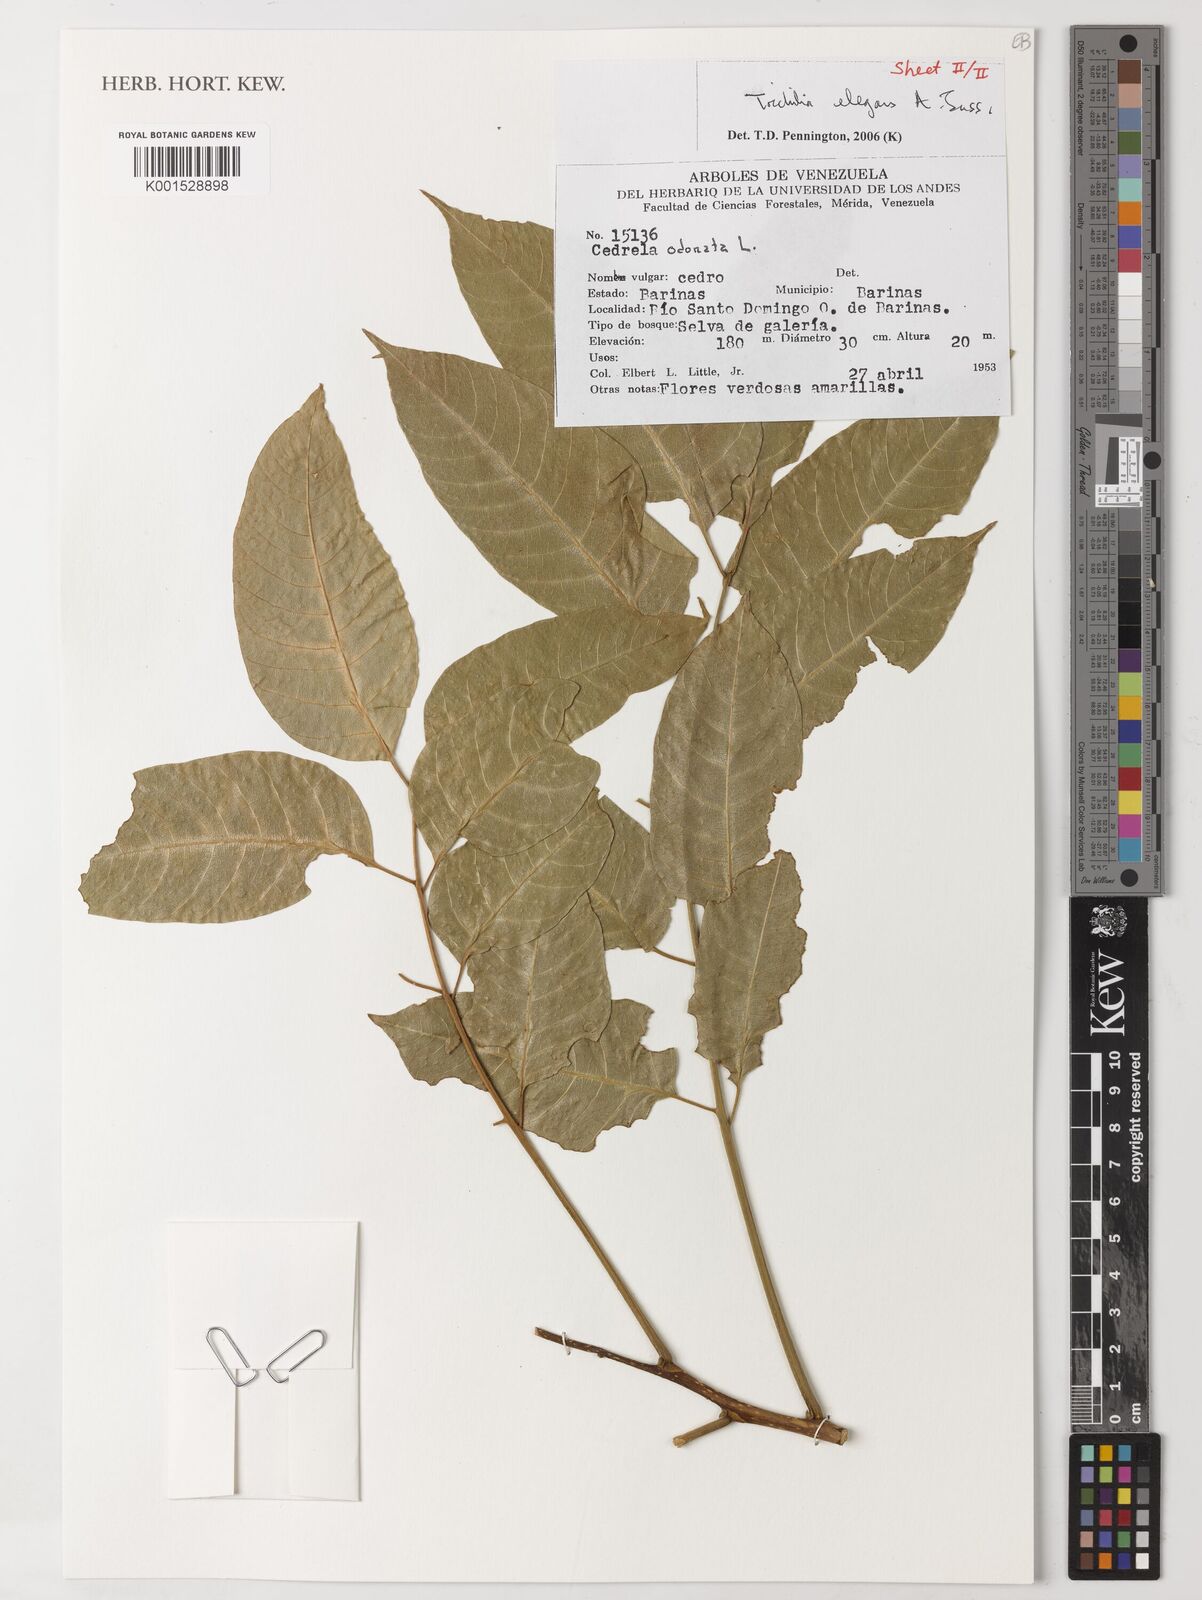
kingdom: Plantae
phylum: Tracheophyta
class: Magnoliopsida
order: Sapindales
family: Meliaceae
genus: Trichilia
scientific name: Trichilia elegans
